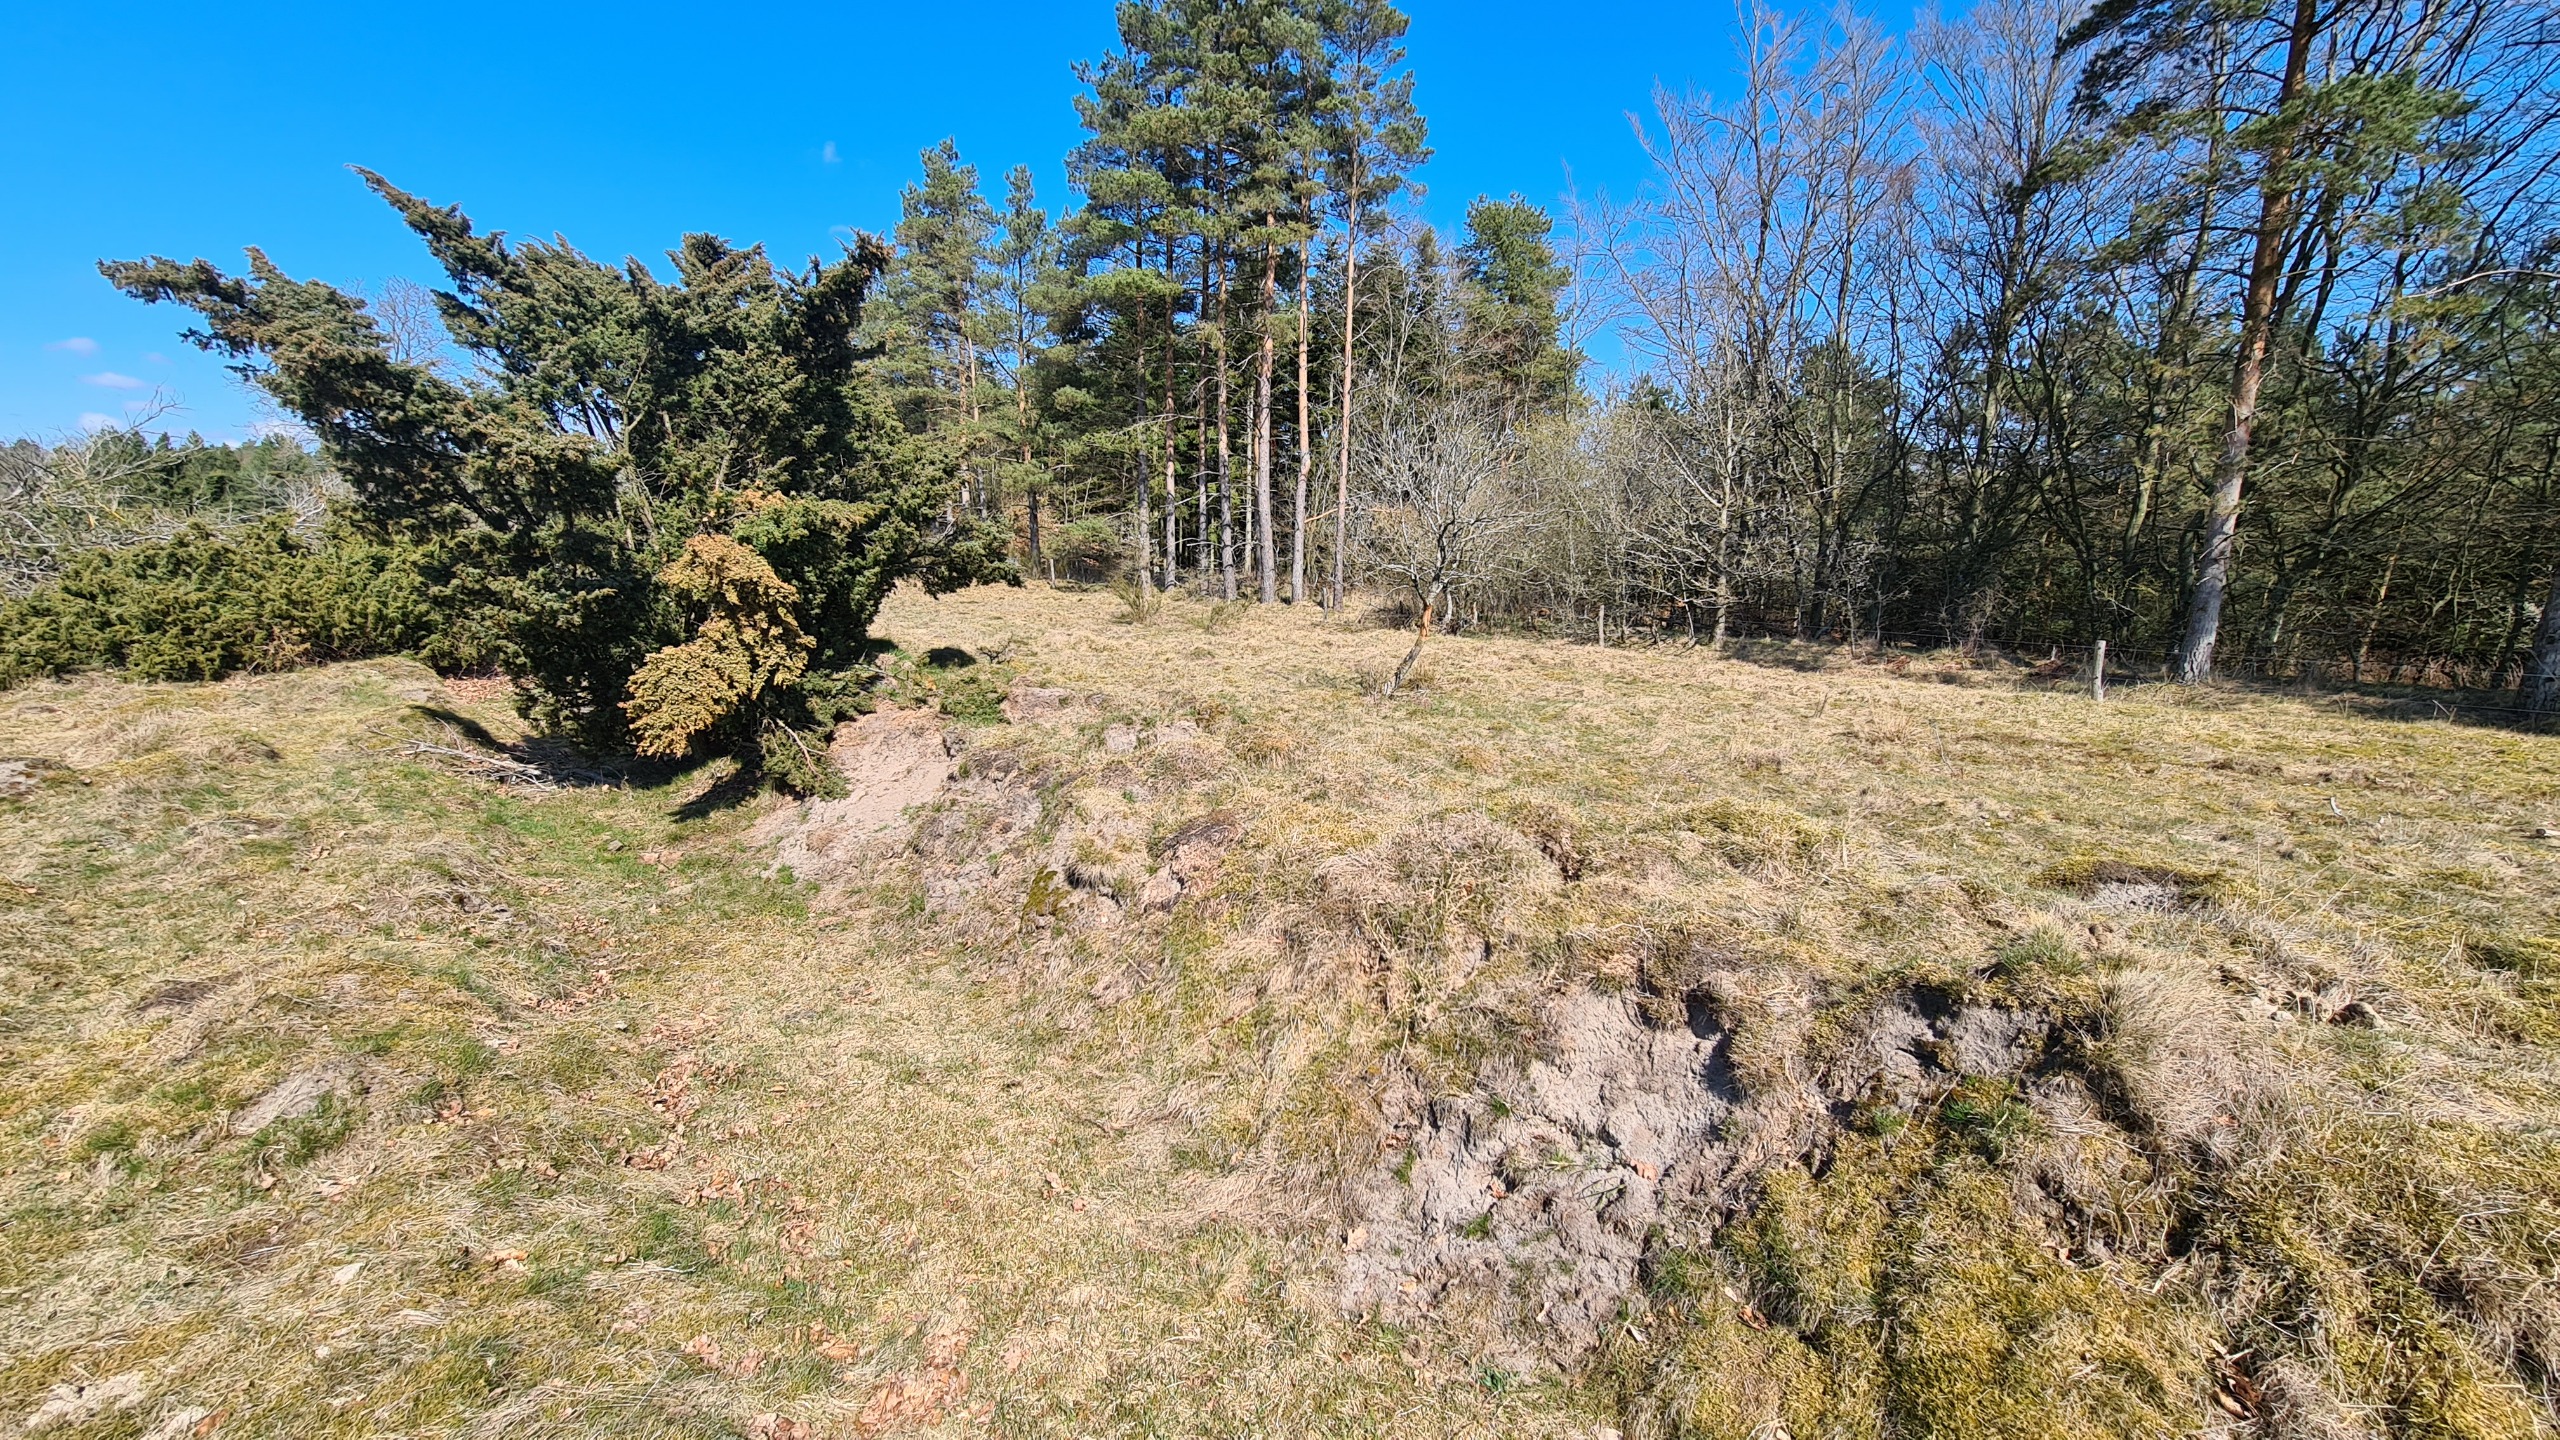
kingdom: Plantae
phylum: Tracheophyta
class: Pinopsida
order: Pinales
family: Cupressaceae
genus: Juniperus
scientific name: Juniperus communis
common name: Almindelig ene
